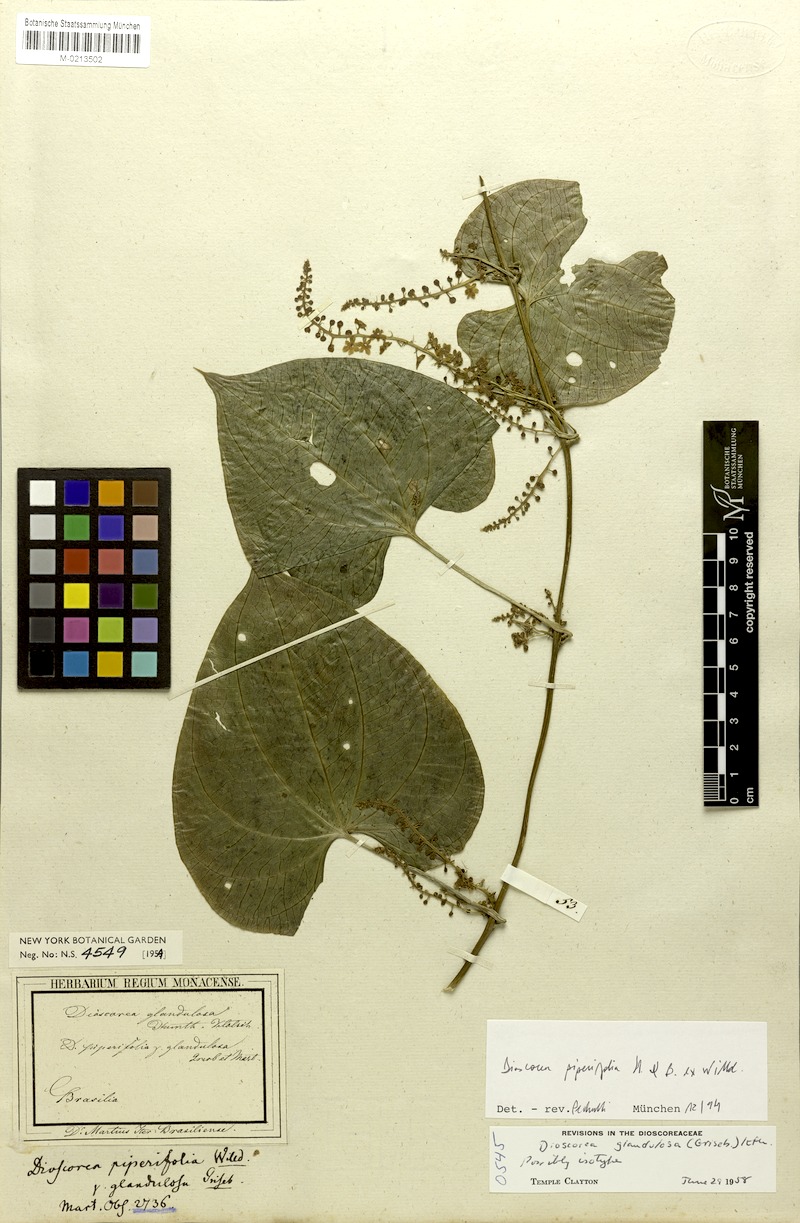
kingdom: Plantae
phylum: Tracheophyta
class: Liliopsida
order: Dioscoreales
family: Dioscoreaceae
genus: Dioscorea
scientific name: Dioscorea glandulosa
